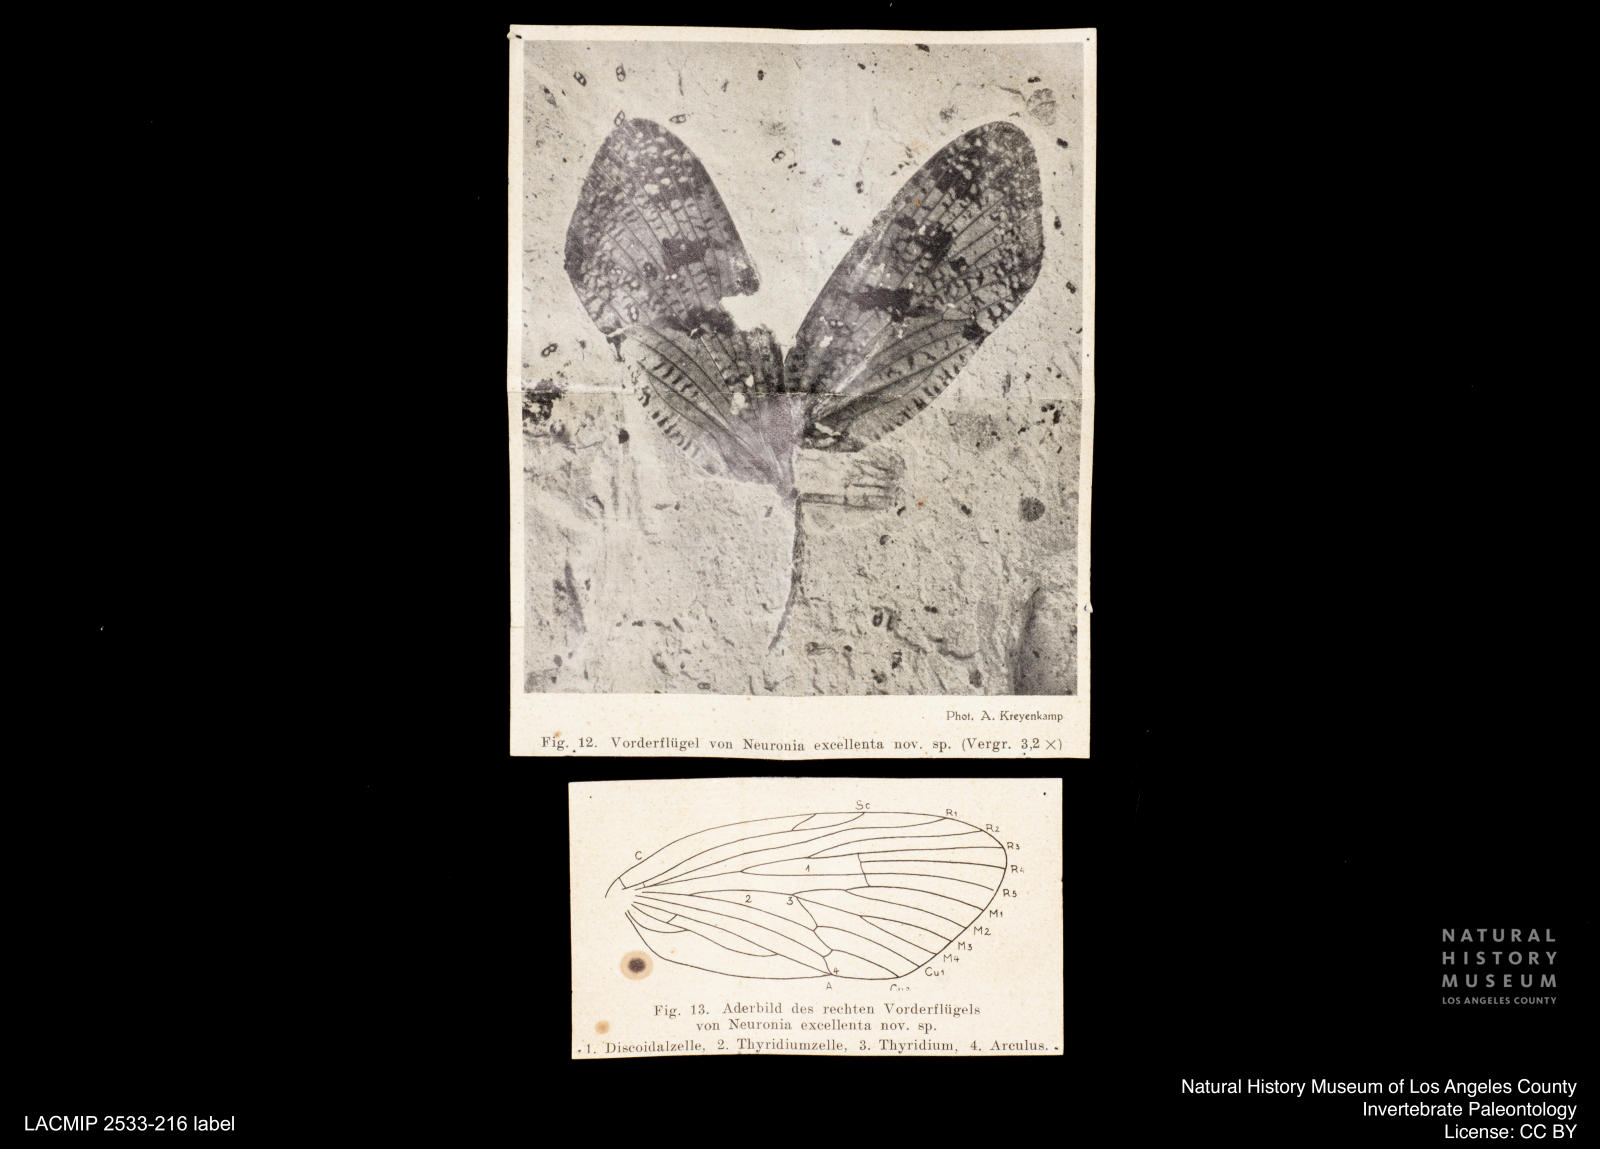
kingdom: Animalia
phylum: Arthropoda
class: Insecta
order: Trichoptera
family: Phryganeidae
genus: Oligotricha
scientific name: Oligotricha Neuronia excellenta
